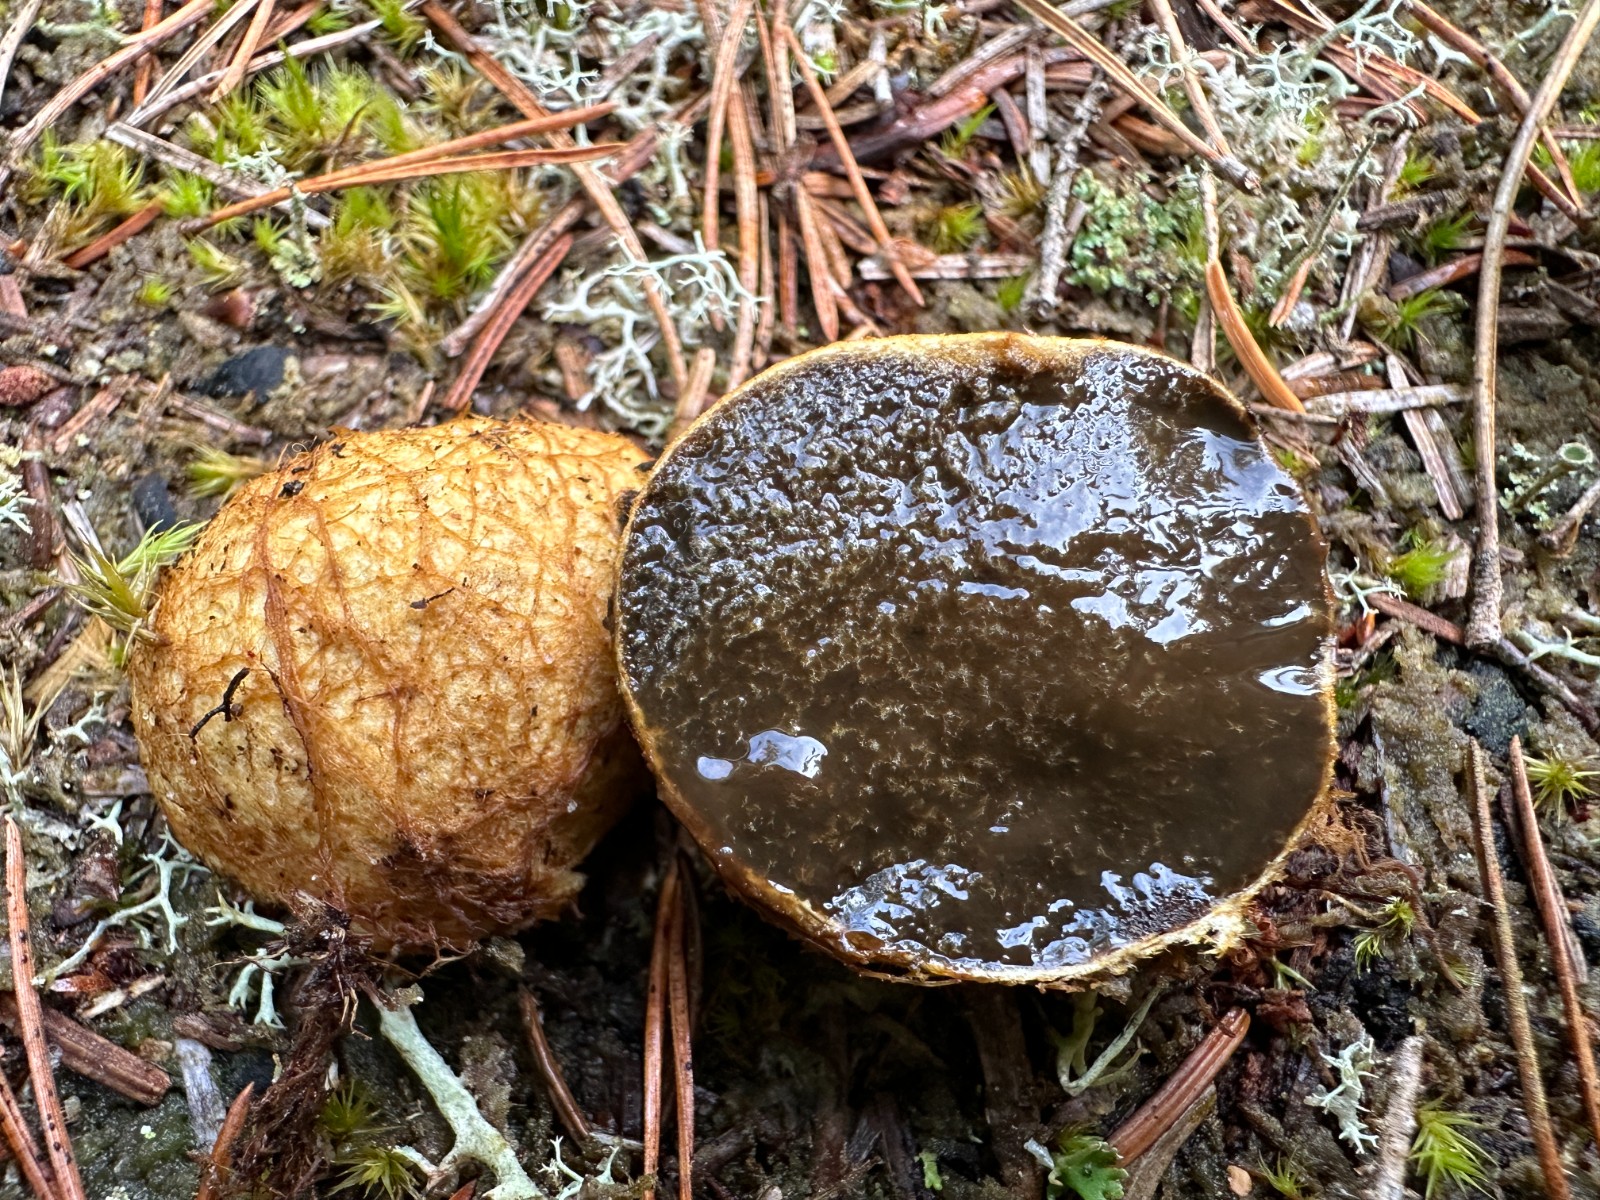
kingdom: Fungi
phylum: Basidiomycota
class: Agaricomycetes
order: Boletales
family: Rhizopogonaceae
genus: Rhizopogon
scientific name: Rhizopogon obtextus
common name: gul skægtrøffel
